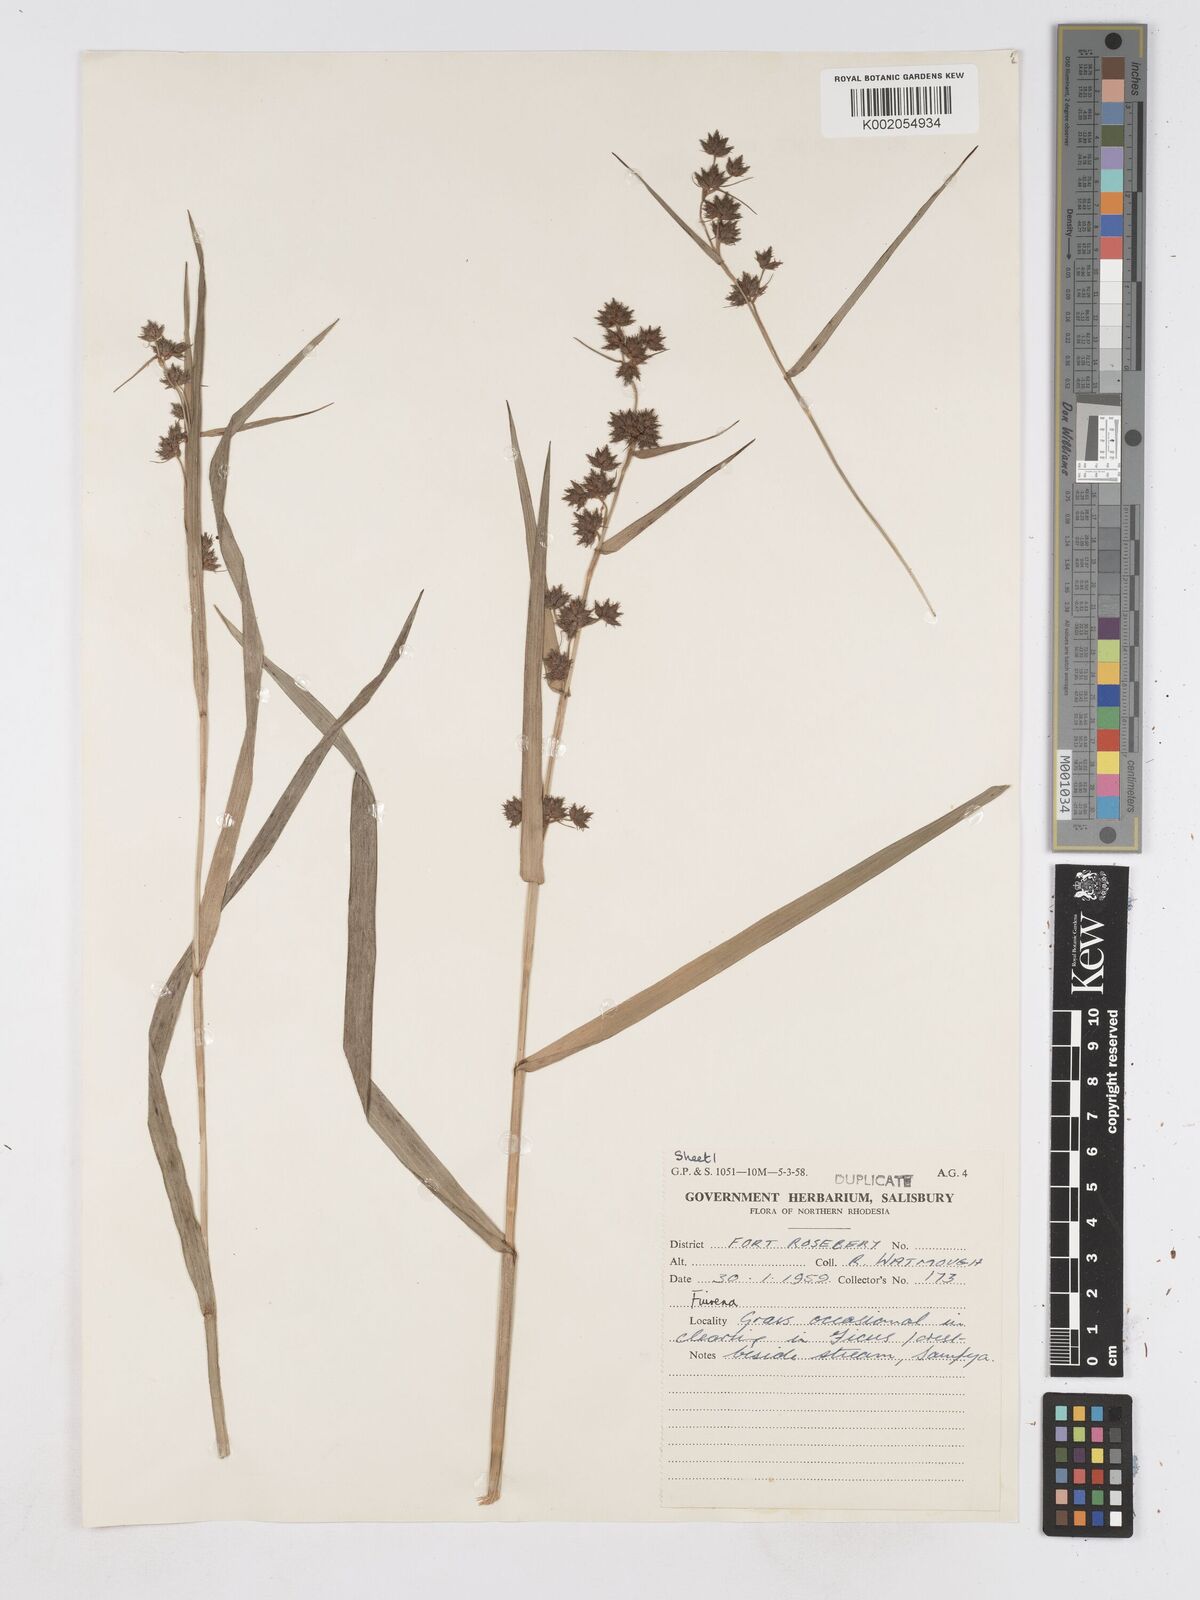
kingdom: Plantae
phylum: Tracheophyta
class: Liliopsida
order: Poales
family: Cyperaceae
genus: Fuirena
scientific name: Fuirena umbellata
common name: Yefen
